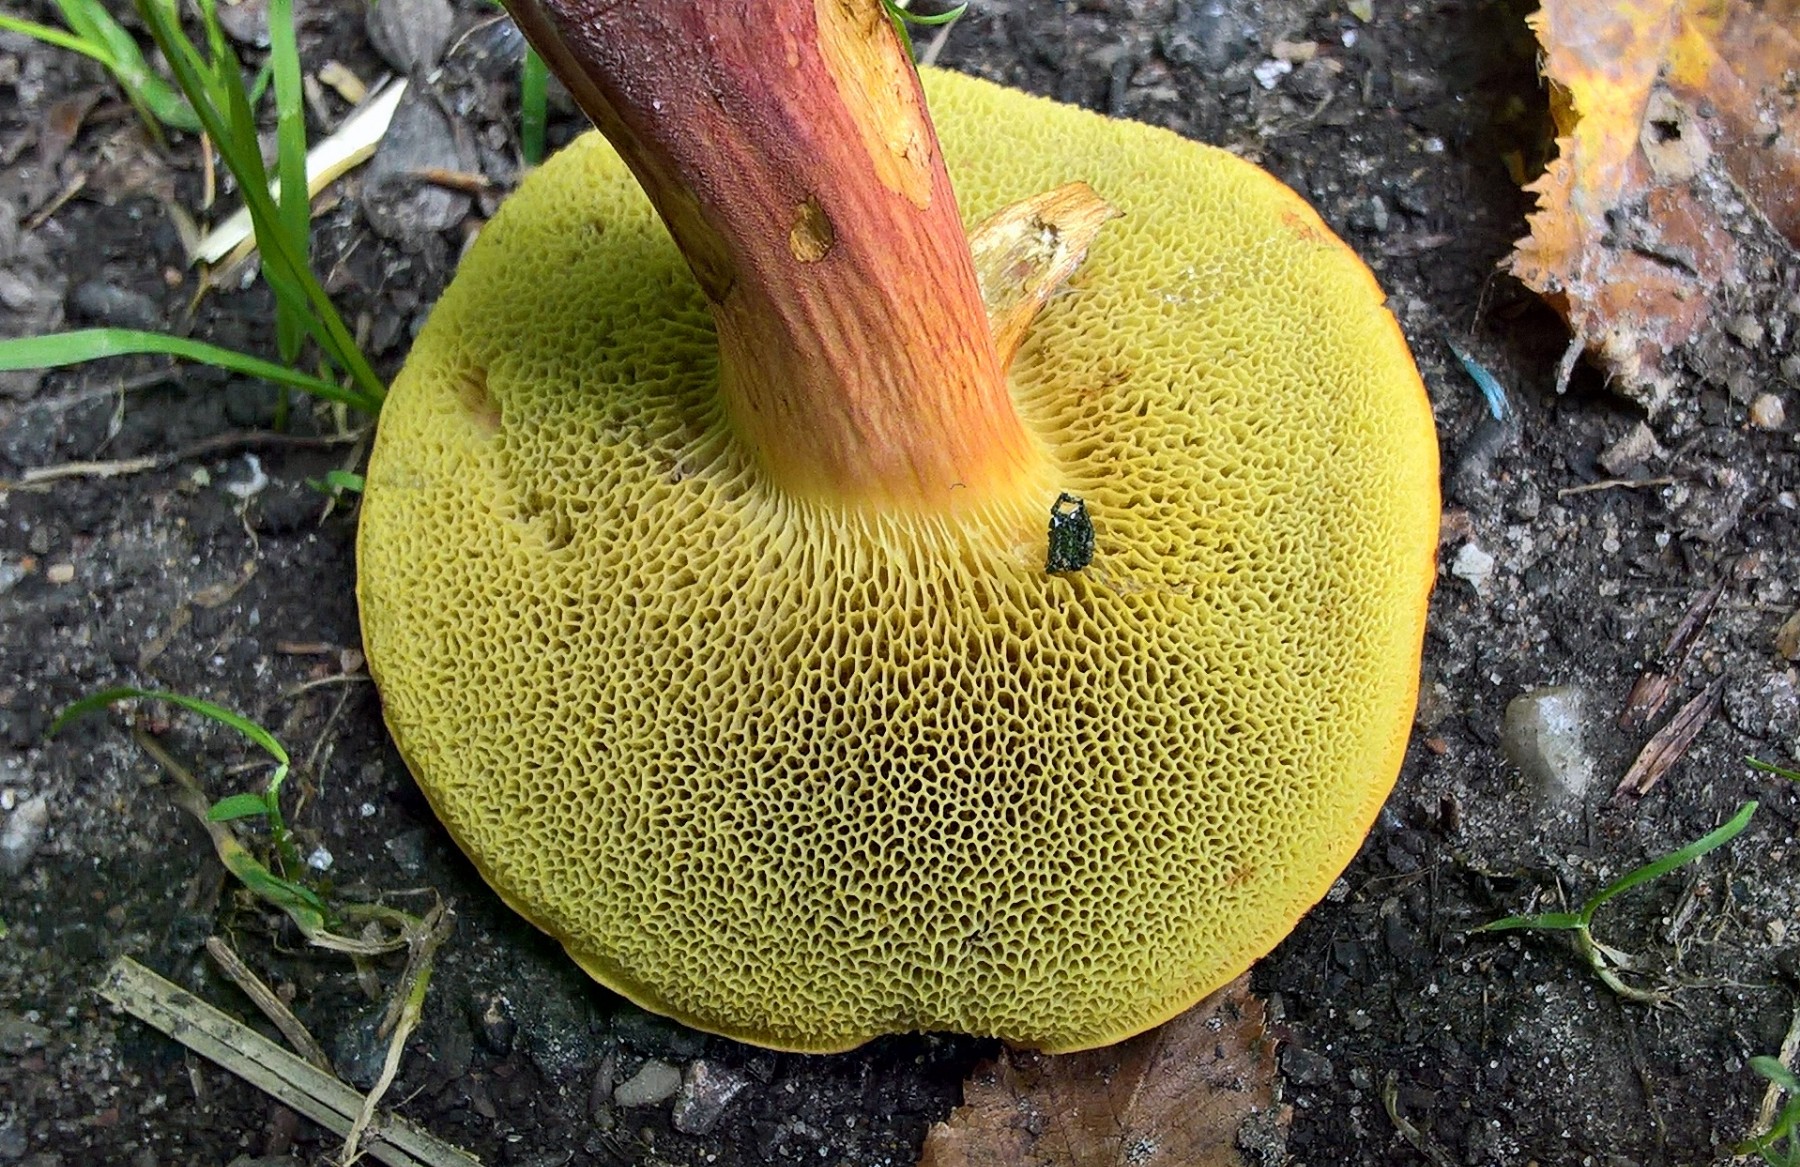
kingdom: Fungi
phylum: Basidiomycota
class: Agaricomycetes
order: Boletales
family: Boletaceae
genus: Hortiboletus
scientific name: Hortiboletus rubellus
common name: blodrød rørhat
